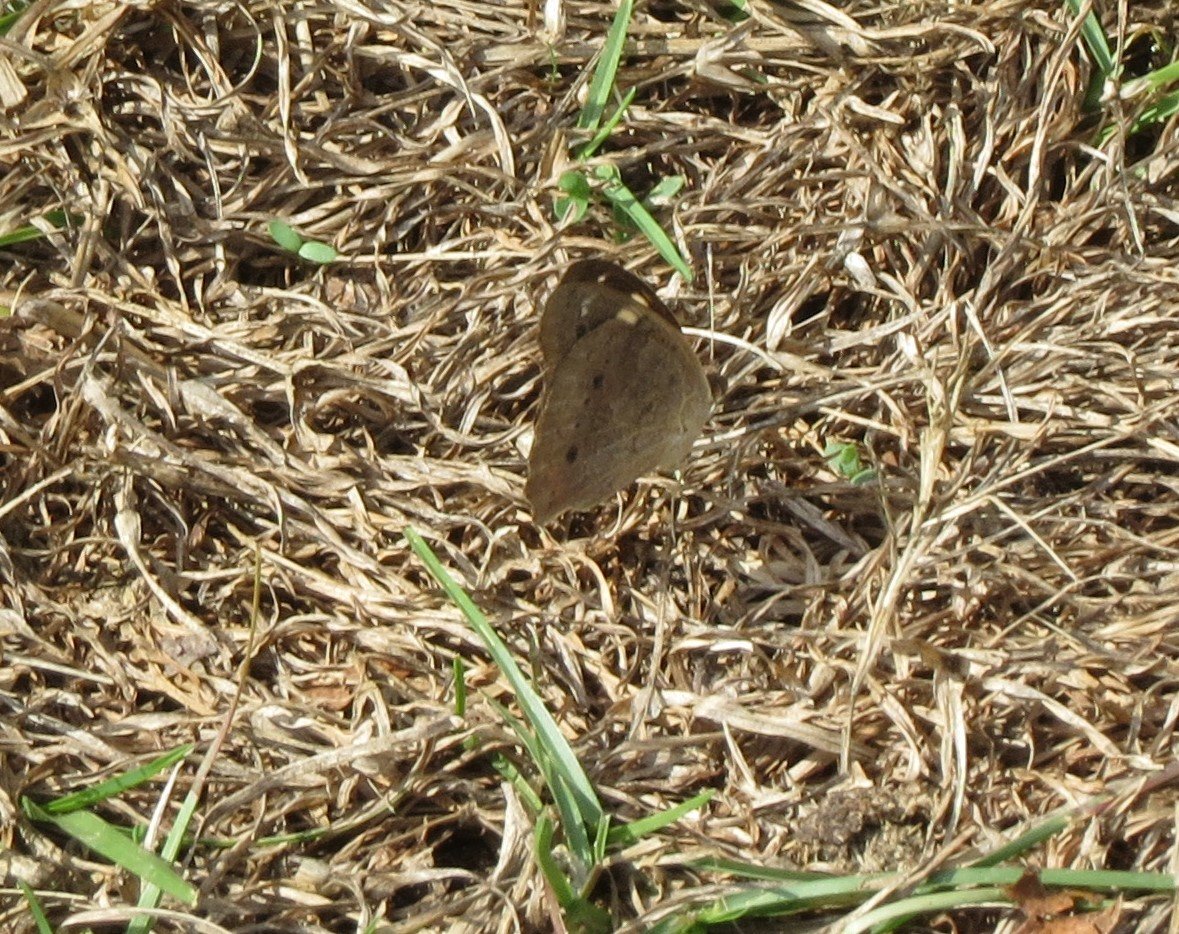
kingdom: Animalia
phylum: Arthropoda
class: Insecta
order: Lepidoptera
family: Nymphalidae
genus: Junonia
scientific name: Junonia coenia
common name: Common Buckeye
